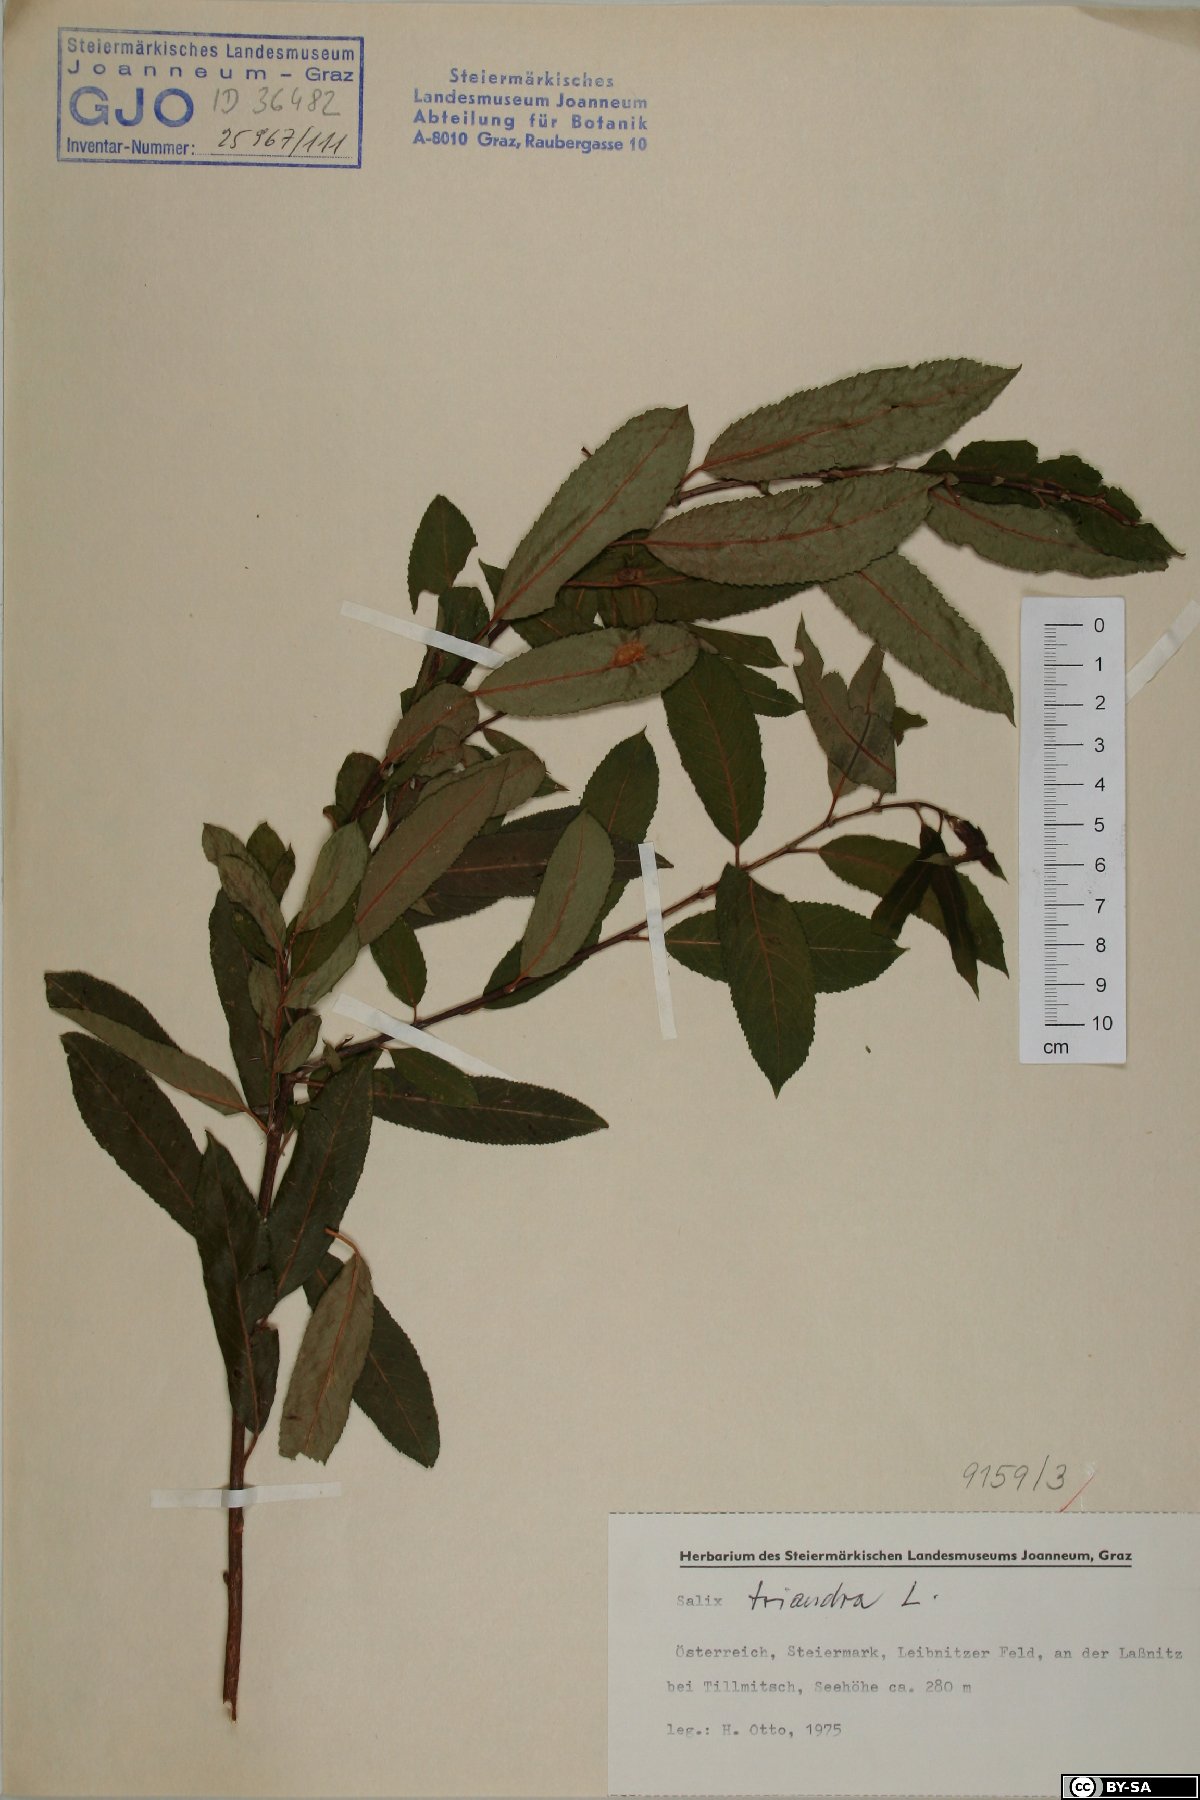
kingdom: Plantae
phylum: Tracheophyta
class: Magnoliopsida
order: Malpighiales
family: Salicaceae
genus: Salix
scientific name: Salix triandra
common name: Almond willow
